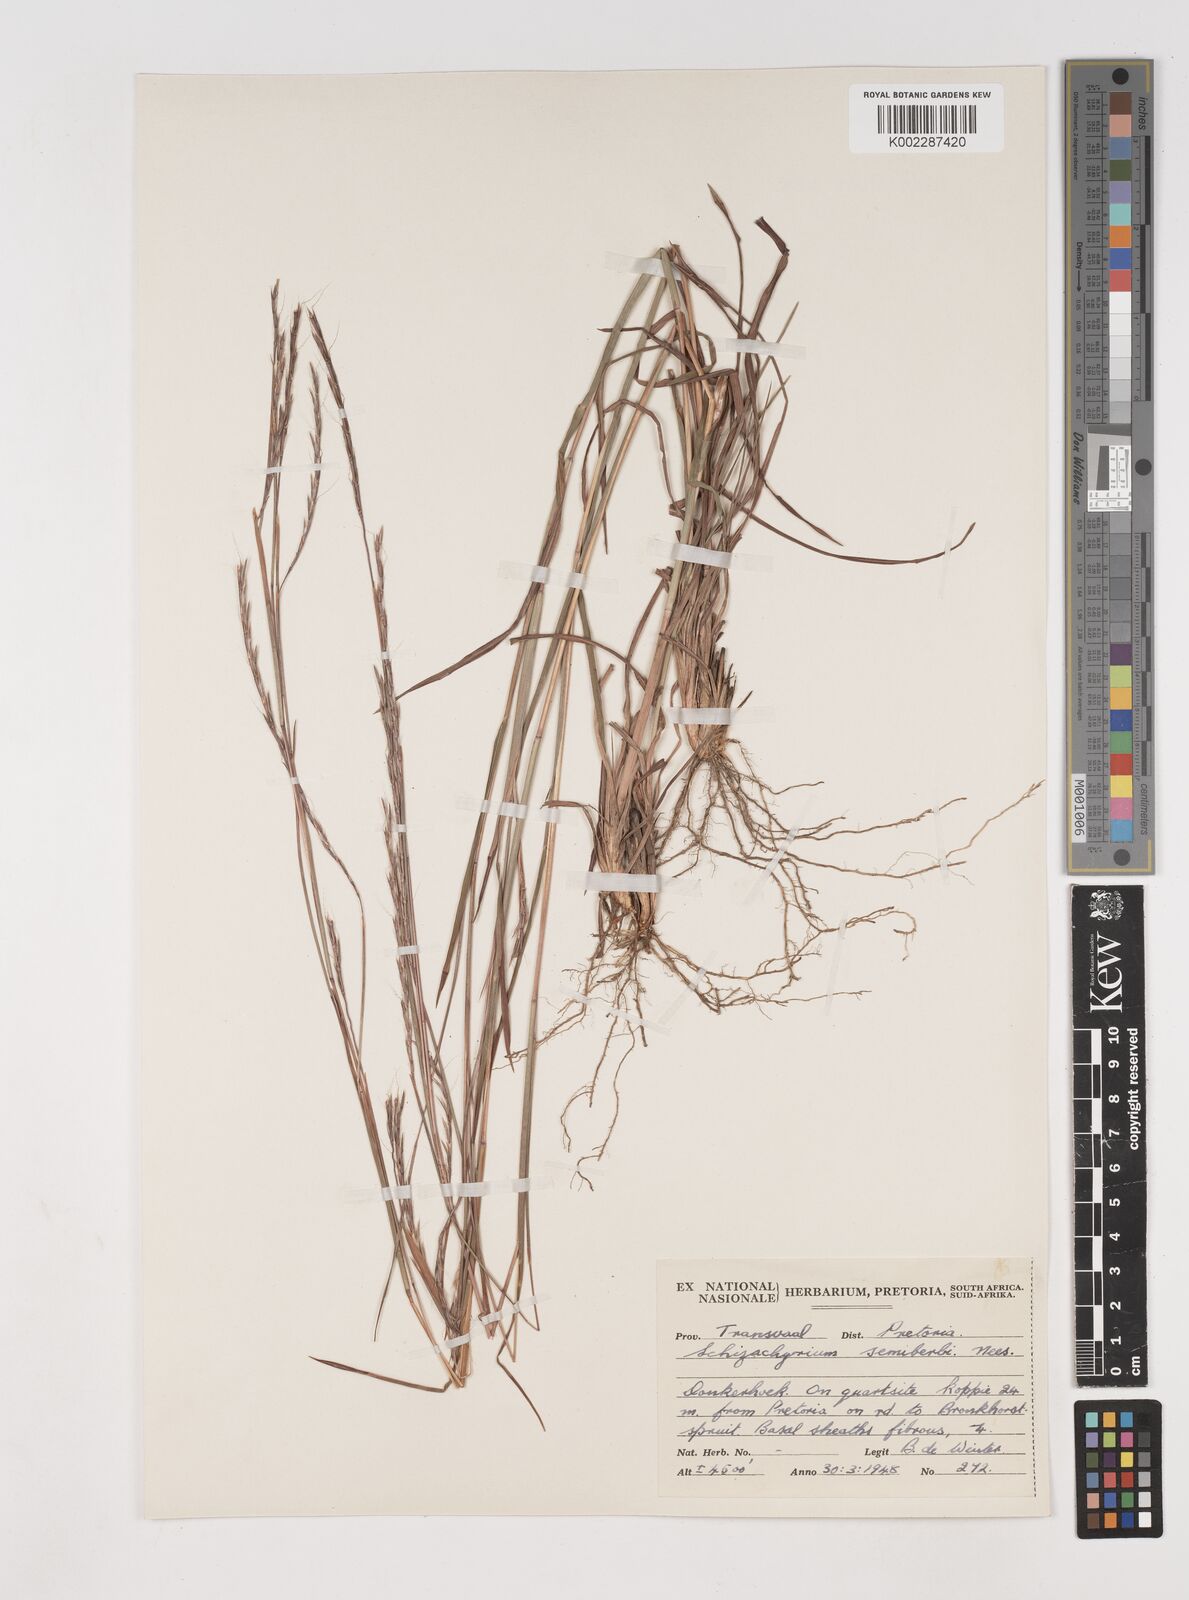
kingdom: Plantae
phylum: Tracheophyta
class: Liliopsida
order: Poales
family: Poaceae
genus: Schizachyrium
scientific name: Schizachyrium sanguineum
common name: Crimson bluestem
